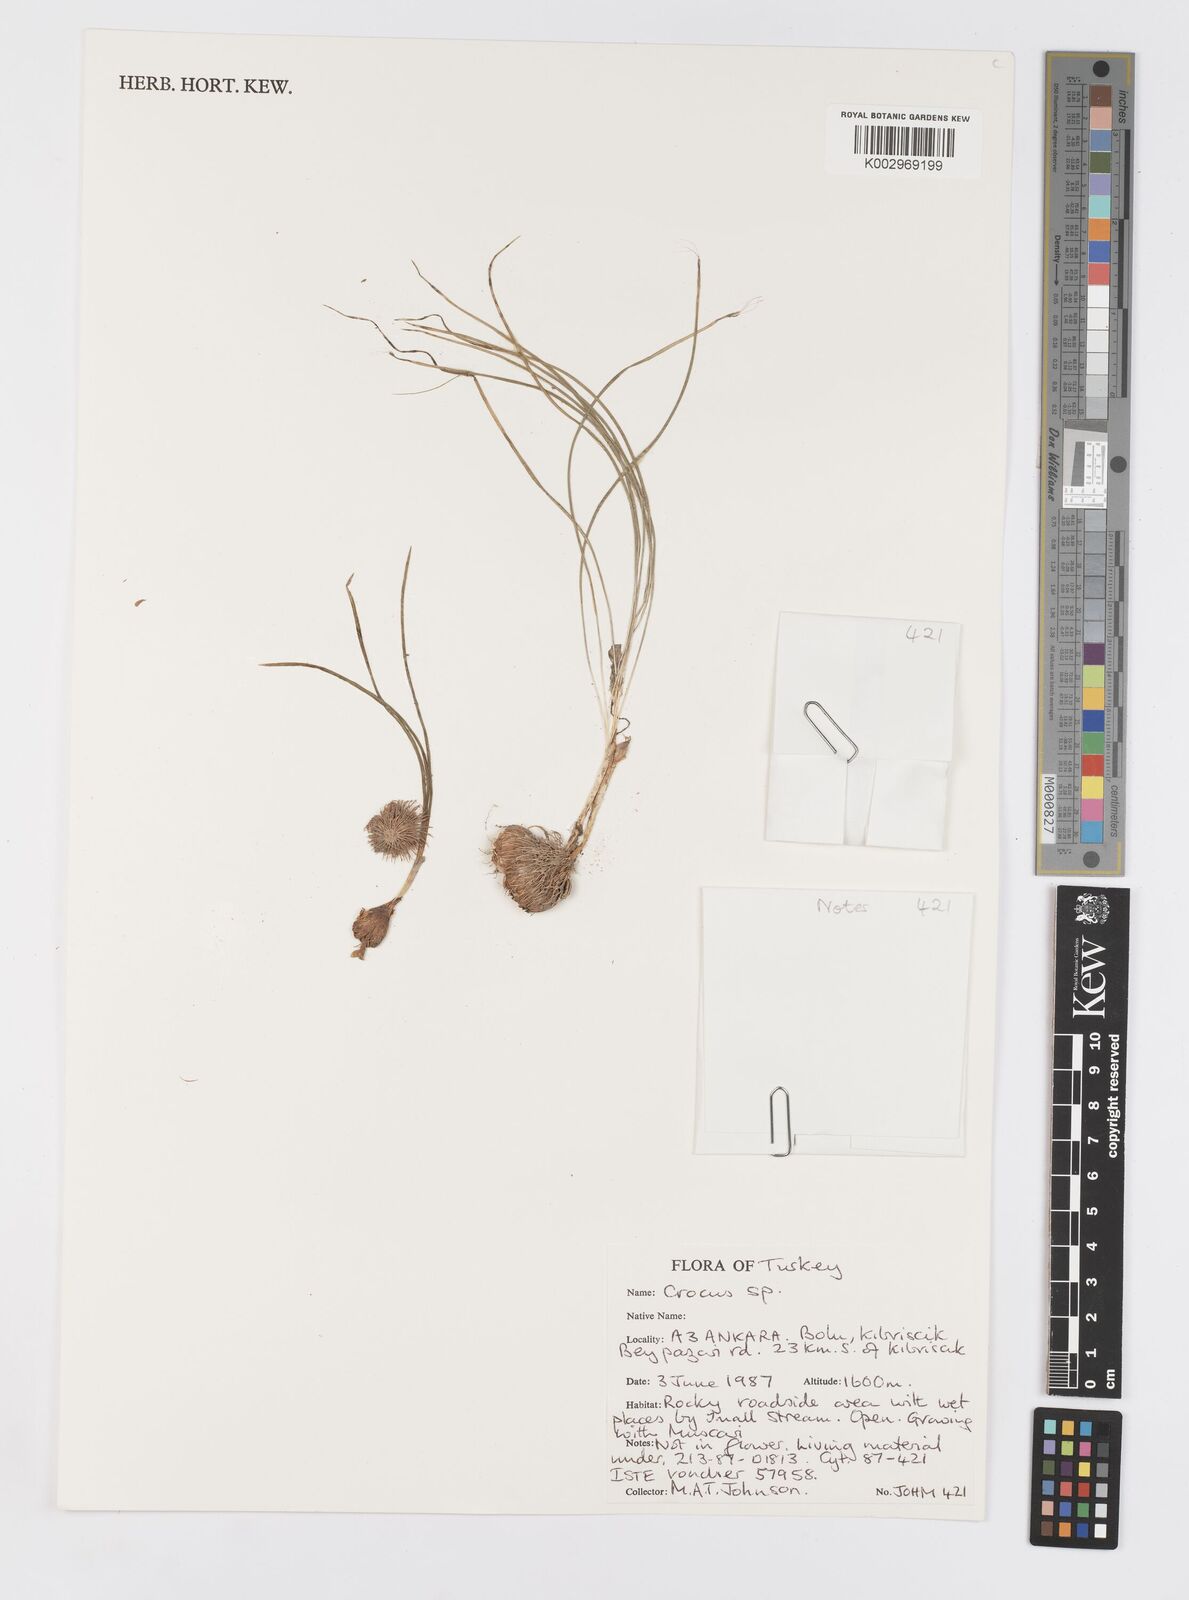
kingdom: Plantae
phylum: Tracheophyta
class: Liliopsida
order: Asparagales
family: Iridaceae
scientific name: Iridaceae
